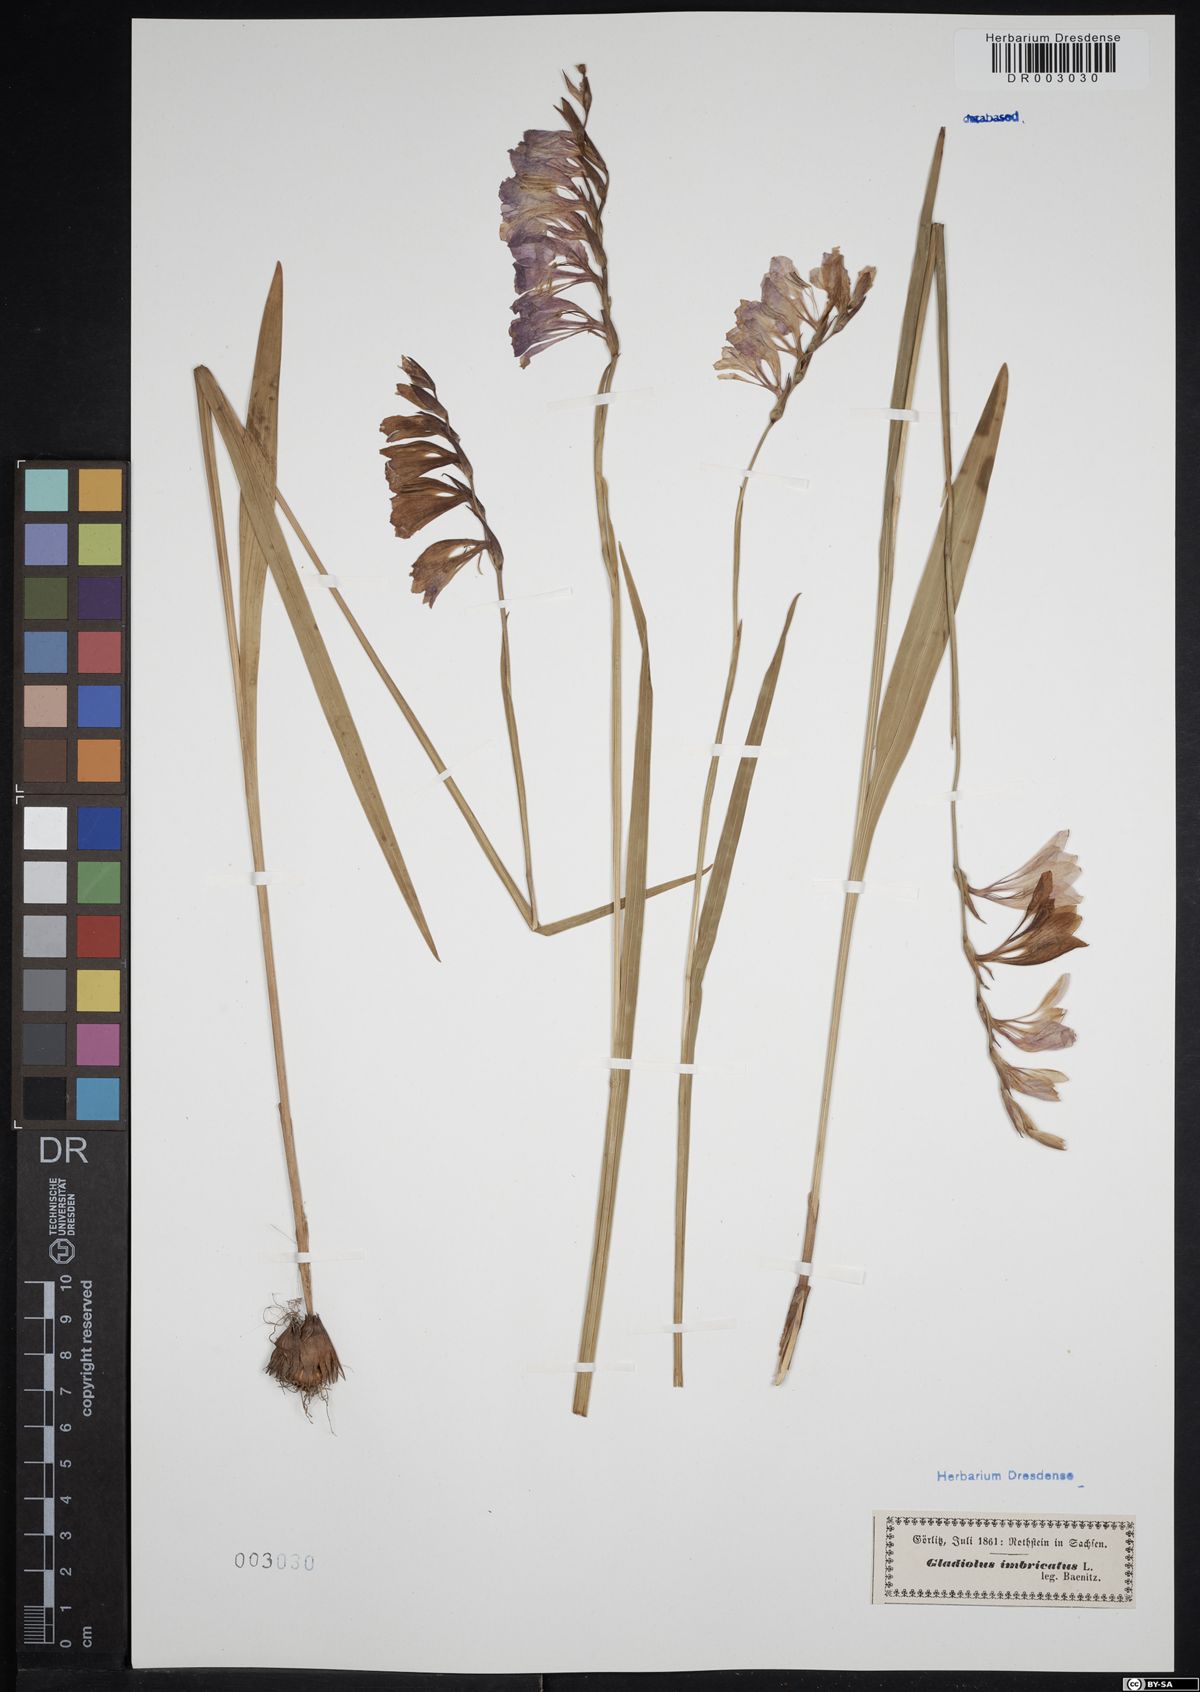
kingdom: Plantae
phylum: Tracheophyta
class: Liliopsida
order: Asparagales
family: Iridaceae
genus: Gladiolus
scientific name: Gladiolus imbricatus
